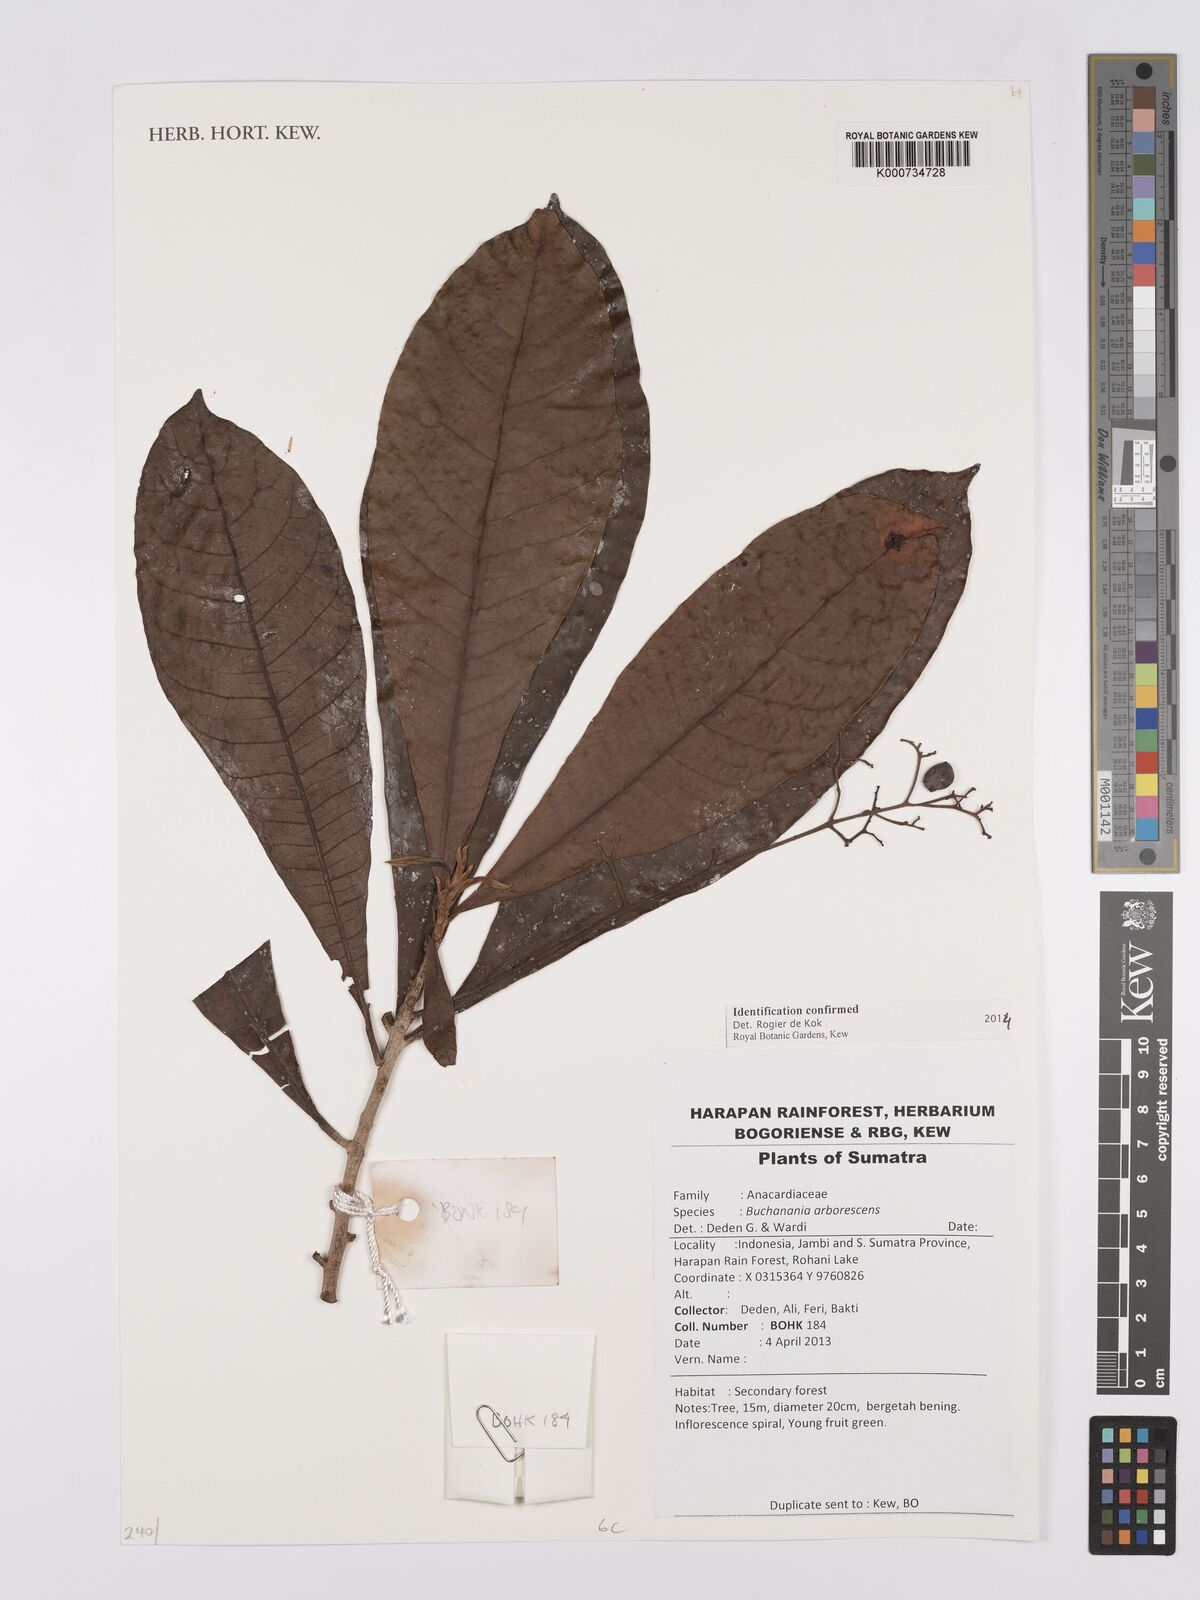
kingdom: Plantae
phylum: Tracheophyta
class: Magnoliopsida
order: Sapindales
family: Anacardiaceae
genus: Buchanania
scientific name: Buchanania arborescens
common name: Sparrow’s mango
